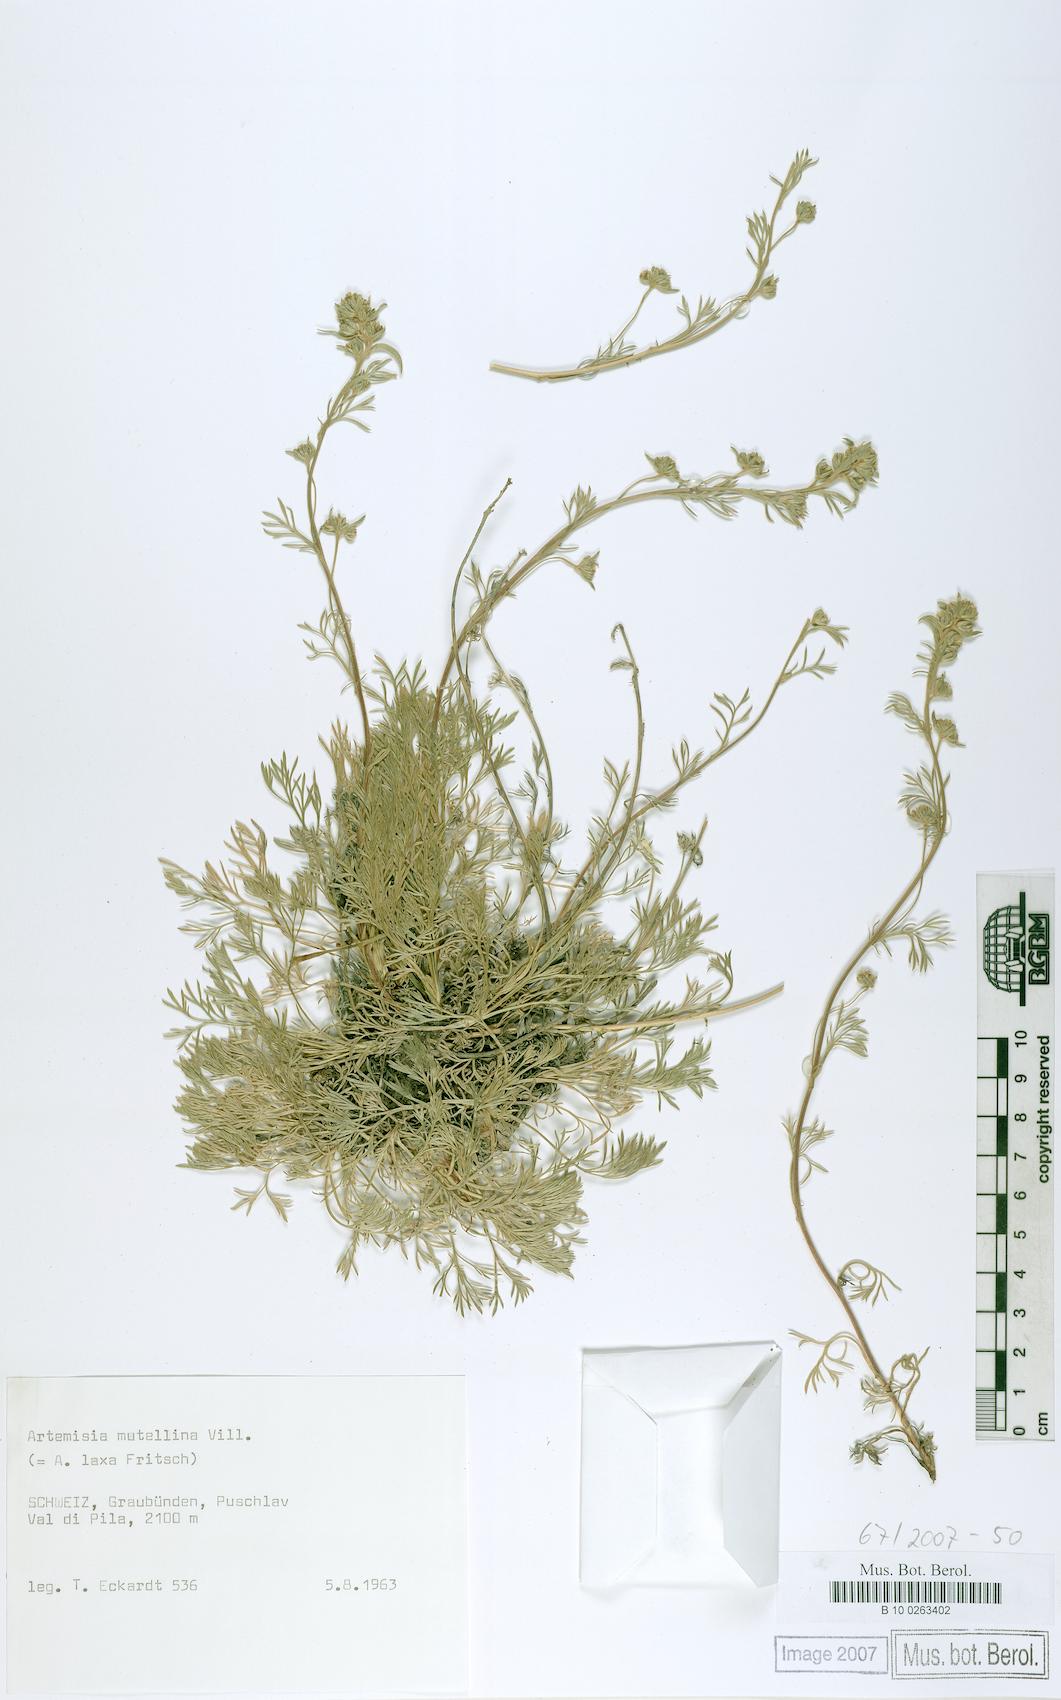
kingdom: Plantae
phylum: Tracheophyta
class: Magnoliopsida
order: Asterales
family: Asteraceae
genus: Artemisia
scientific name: Artemisia mutellina
